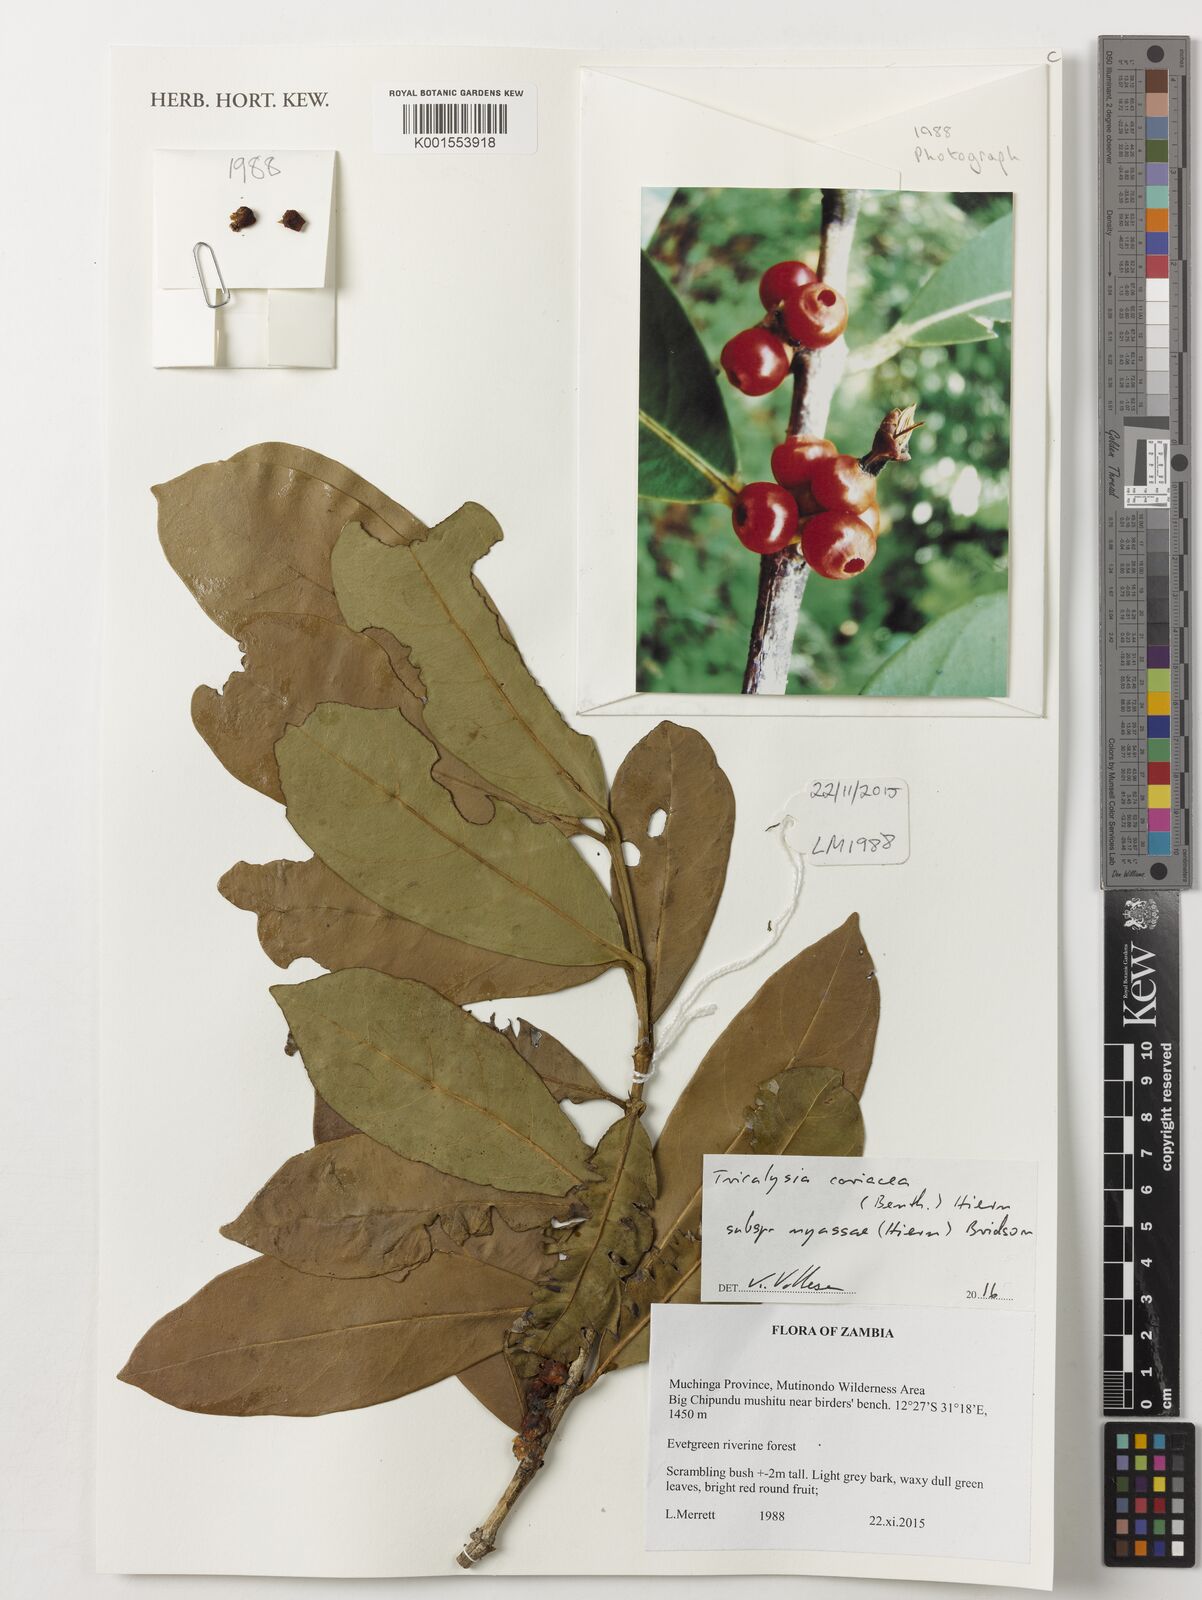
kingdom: Plantae
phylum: Tracheophyta
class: Magnoliopsida
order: Gentianales
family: Rubiaceae
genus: Tricalysia
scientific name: Tricalysia coriacea
